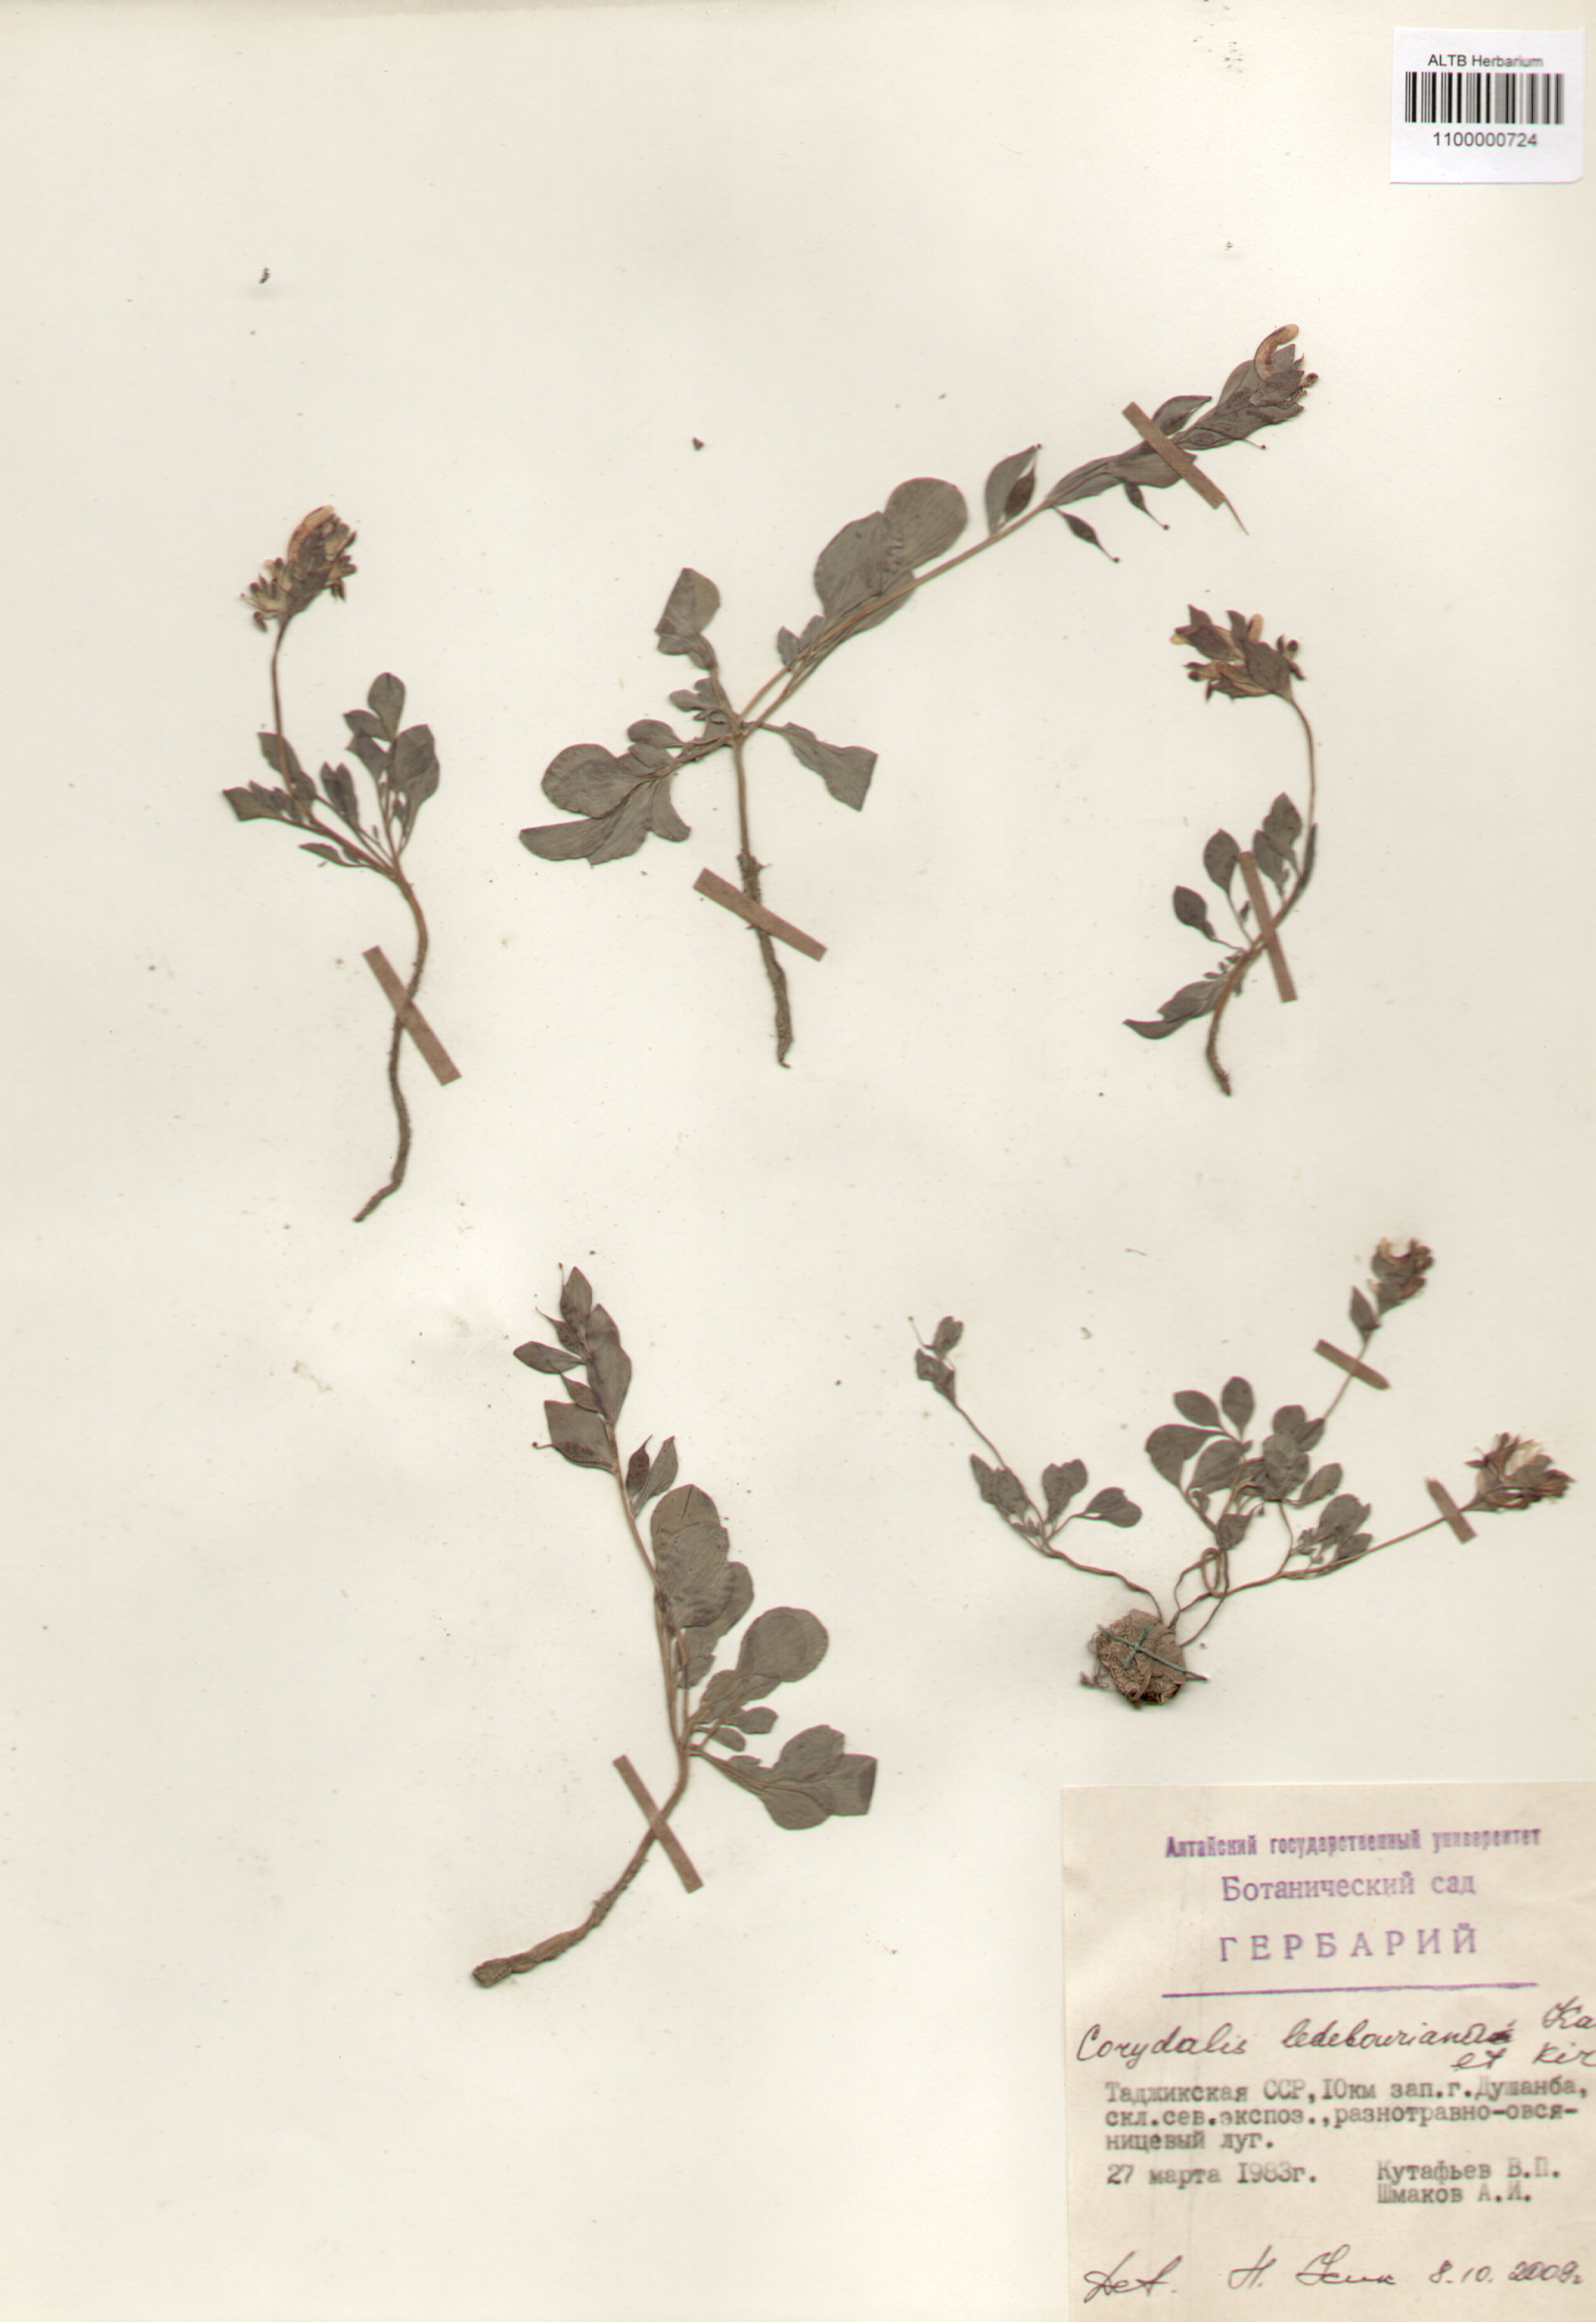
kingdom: Plantae
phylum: Tracheophyta
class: Magnoliopsida
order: Ranunculales
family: Papaveraceae
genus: Corydalis
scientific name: Corydalis ledebouriana
